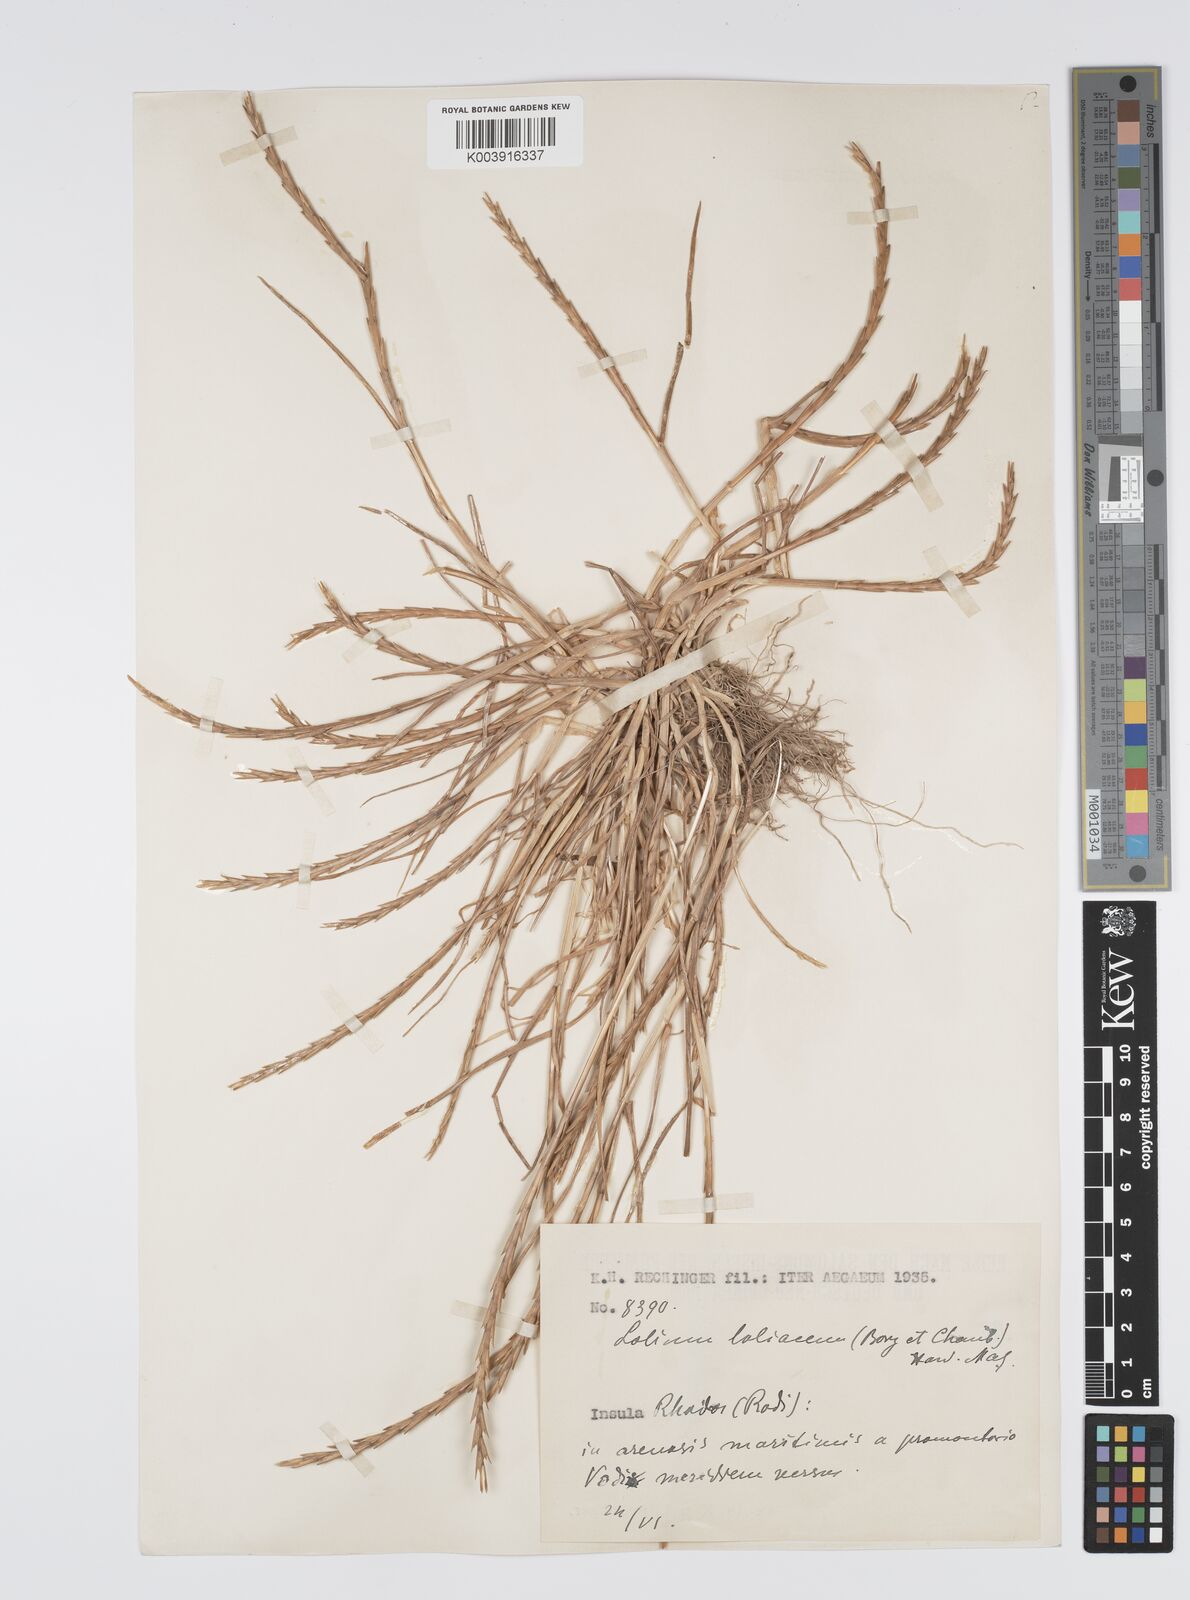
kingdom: Plantae
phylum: Tracheophyta
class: Liliopsida
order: Poales
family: Poaceae
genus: Lolium
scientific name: Lolium rigidum
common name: Wimmera ryegrass
